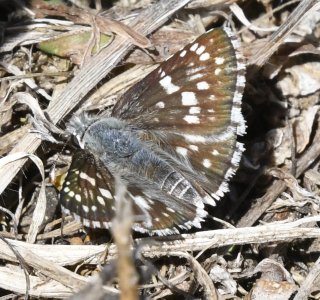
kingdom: Animalia
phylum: Arthropoda
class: Insecta
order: Lepidoptera
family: Hesperiidae
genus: Pyrgus
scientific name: Pyrgus communis
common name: Common Checkered-Skipper
